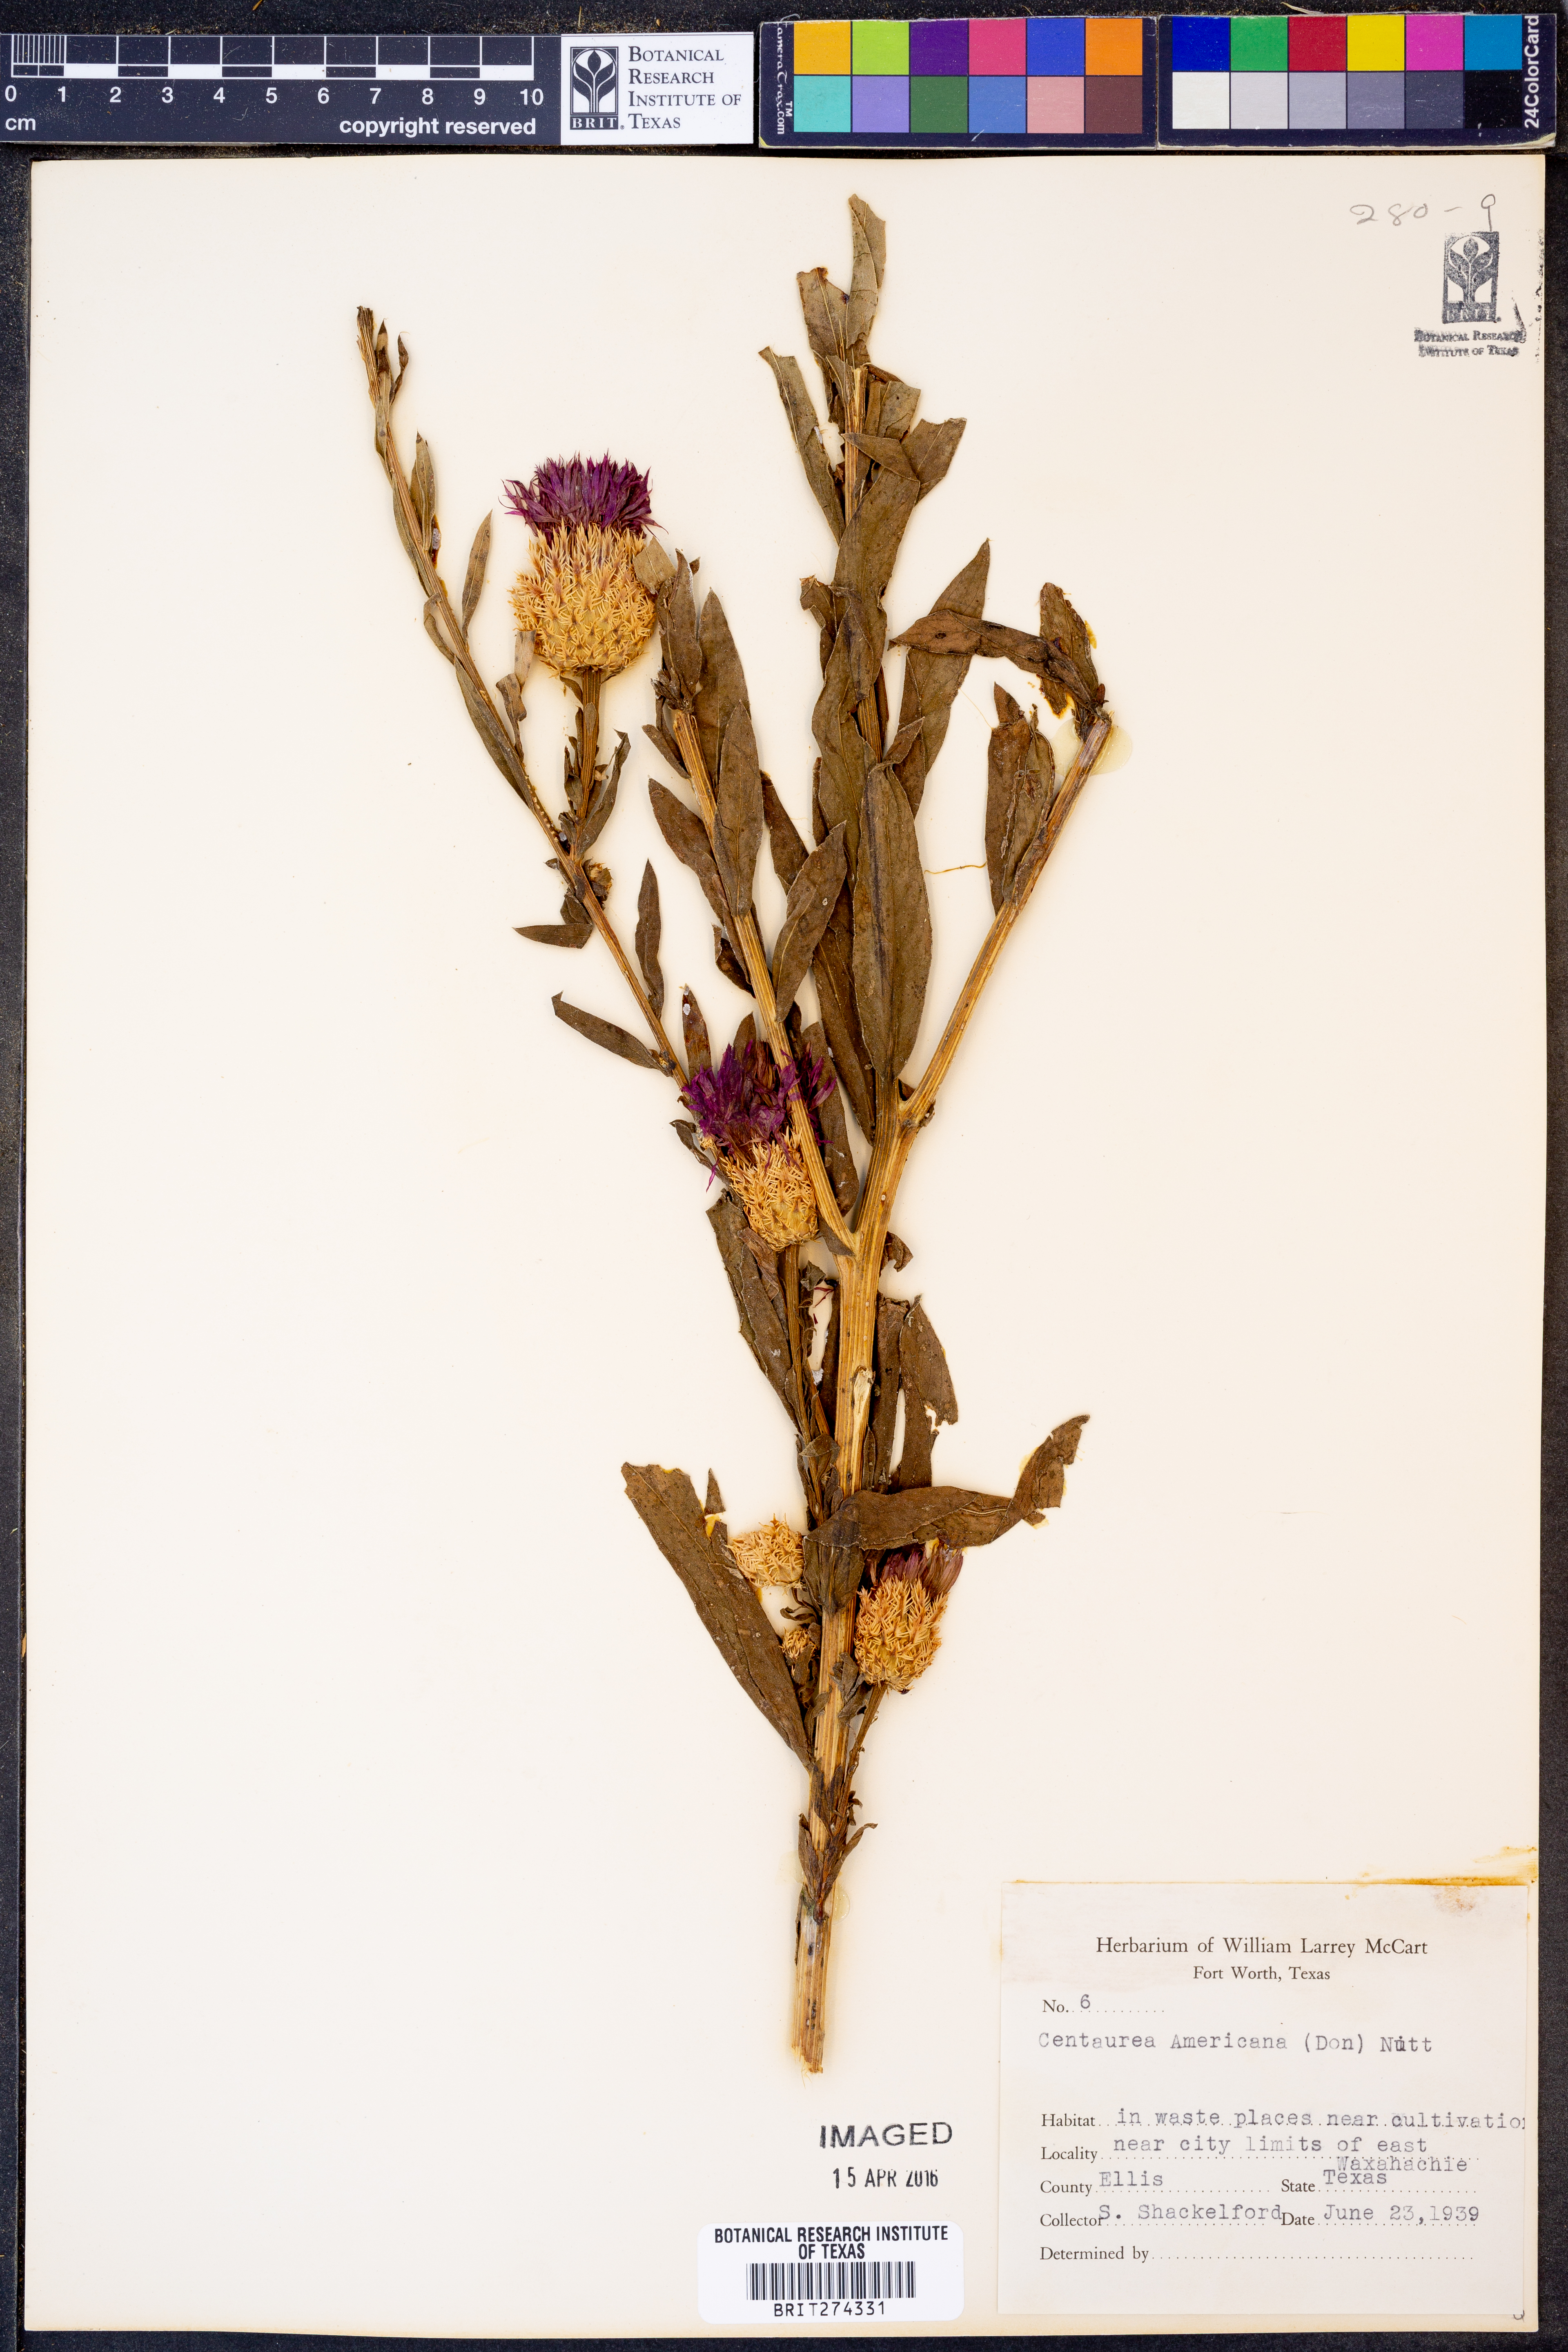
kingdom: Plantae
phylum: Tracheophyta
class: Magnoliopsida
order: Asterales
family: Asteraceae
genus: Plectocephalus
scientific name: Plectocephalus americanus
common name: American basket-flower
